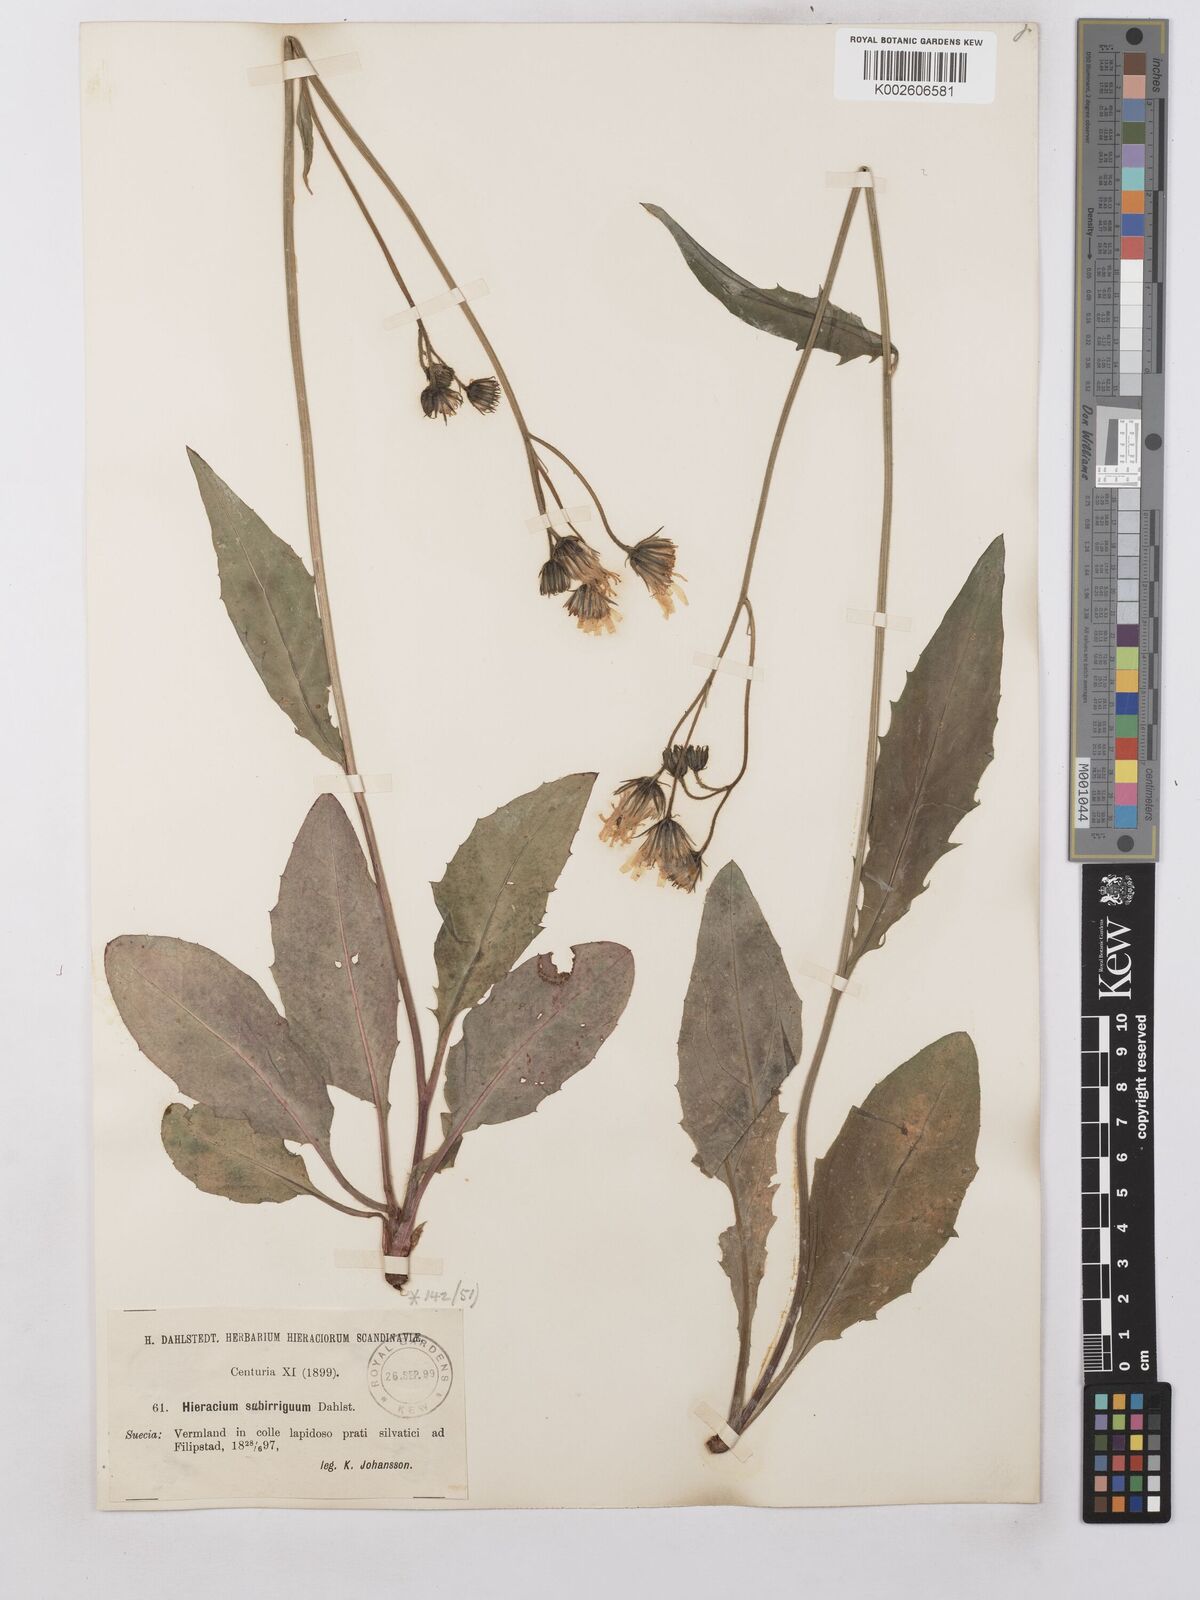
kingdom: Plantae
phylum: Tracheophyta
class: Magnoliopsida
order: Asterales
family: Asteraceae
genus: Hieracium
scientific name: Hieracium lachenalii
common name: Common hawkweed
